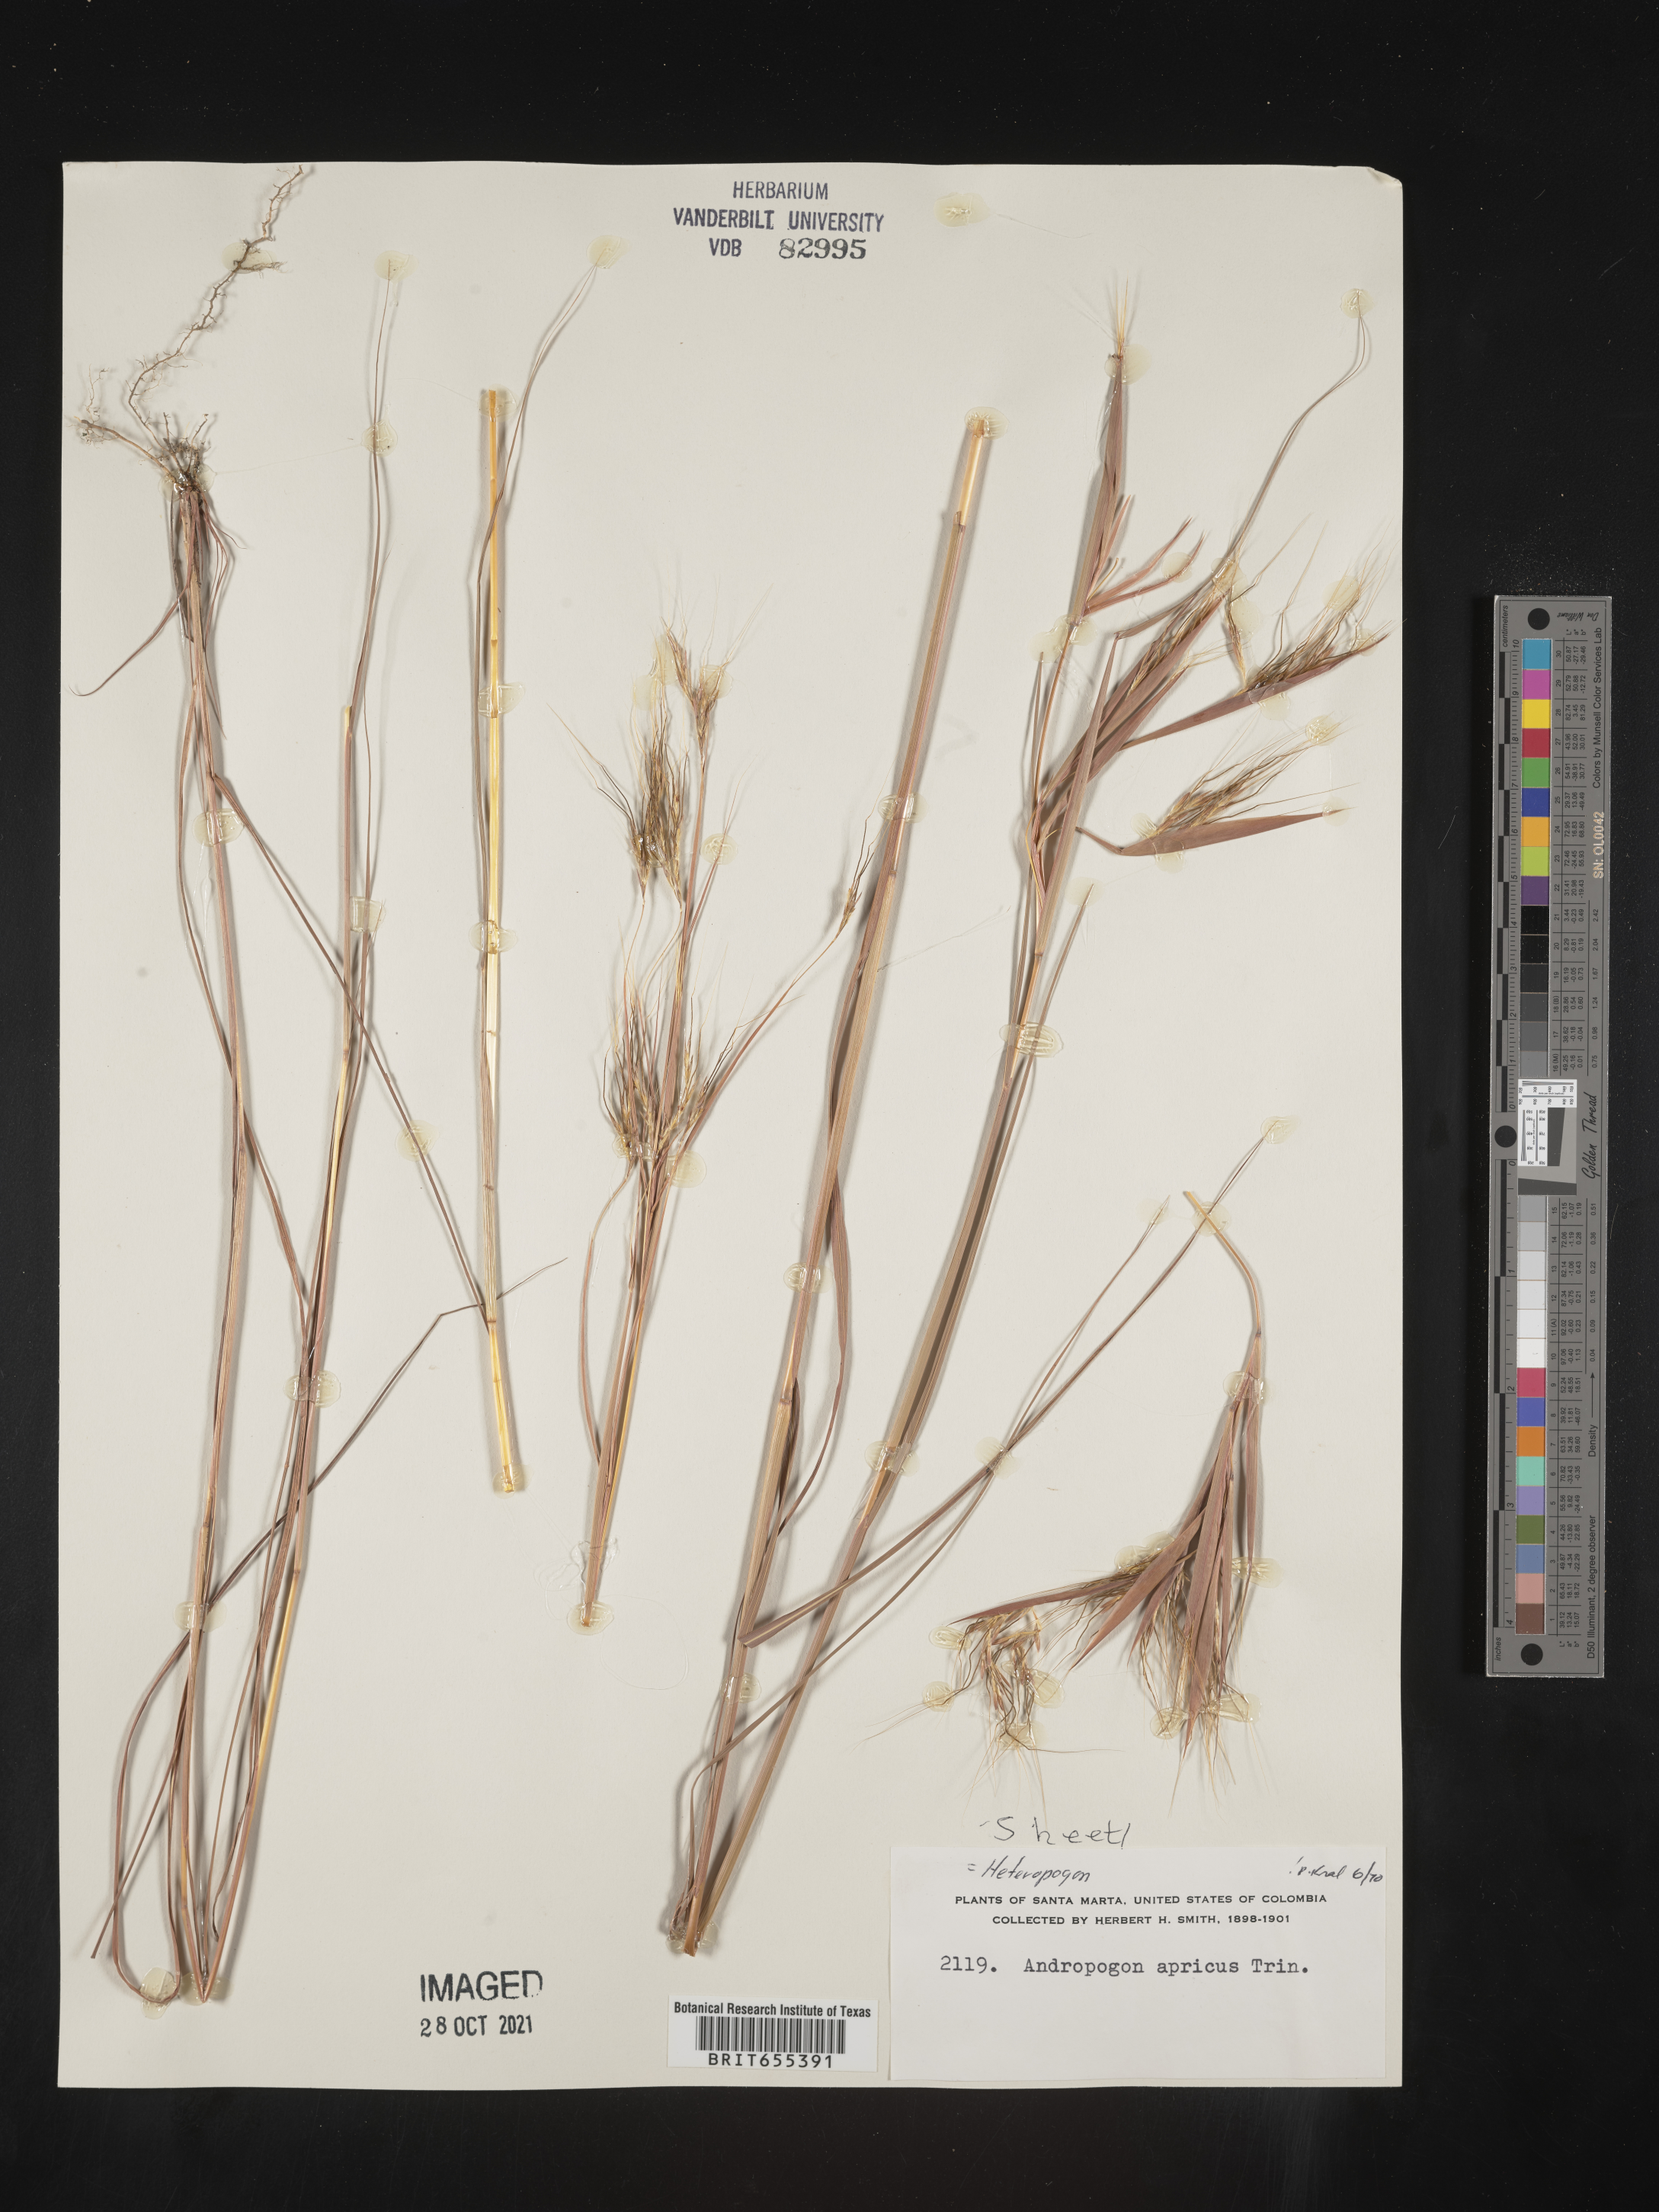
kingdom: Plantae
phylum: Tracheophyta
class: Liliopsida
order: Poales
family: Poaceae
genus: Heteropogon
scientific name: Heteropogon
